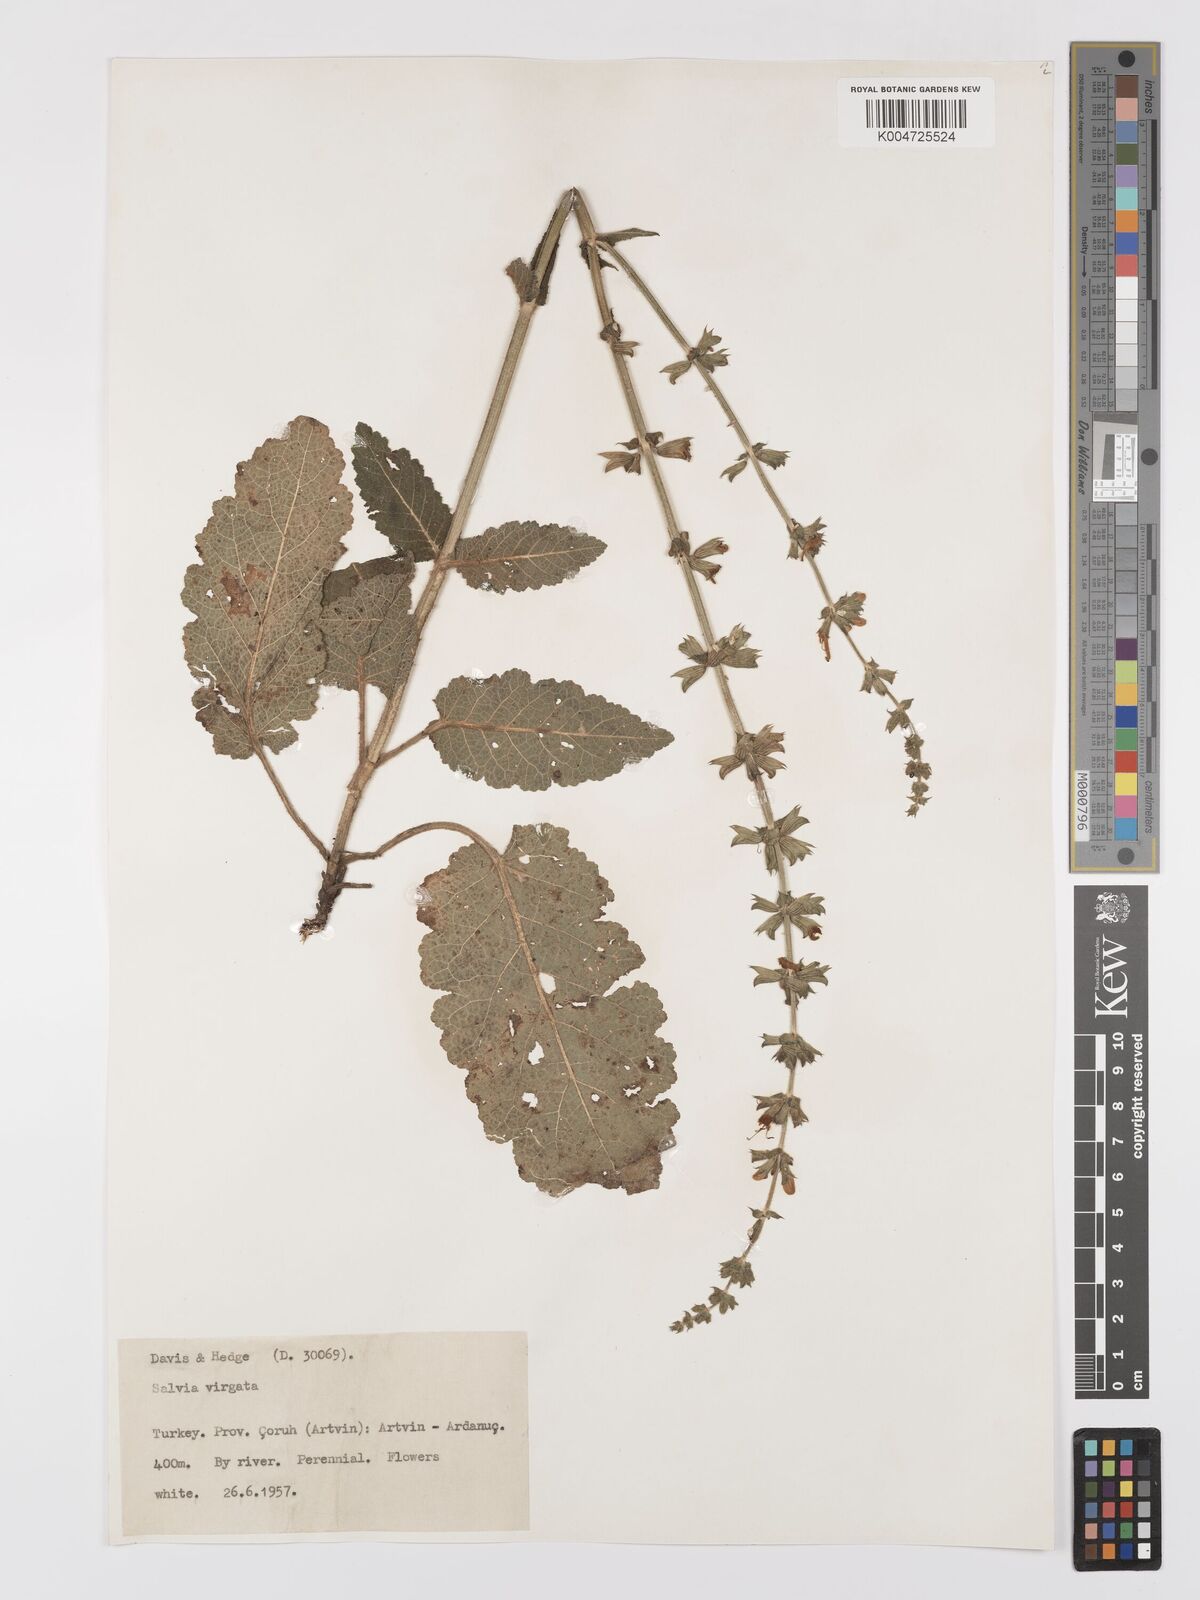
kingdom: Plantae
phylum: Tracheophyta
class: Magnoliopsida
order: Lamiales
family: Lamiaceae
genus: Salvia
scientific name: Salvia
